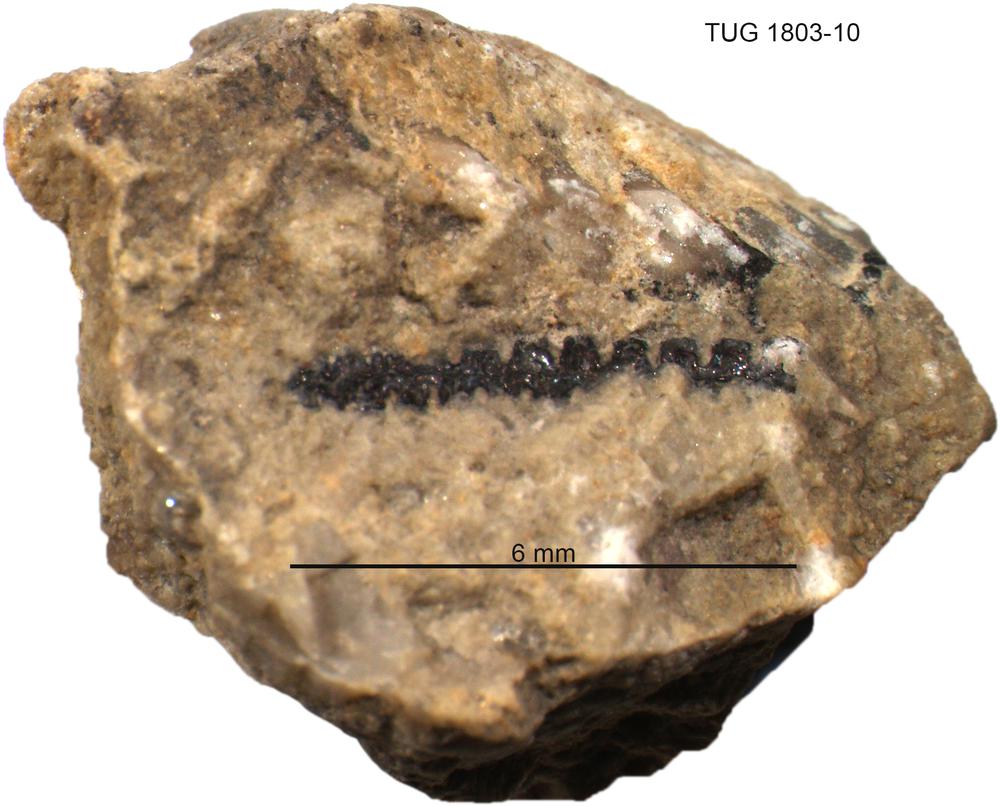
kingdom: Animalia
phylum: Hemichordata
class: Pterobranchia
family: Climacograptidae
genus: Pseudoclimacograptus
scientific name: Pseudoclimacograptus
